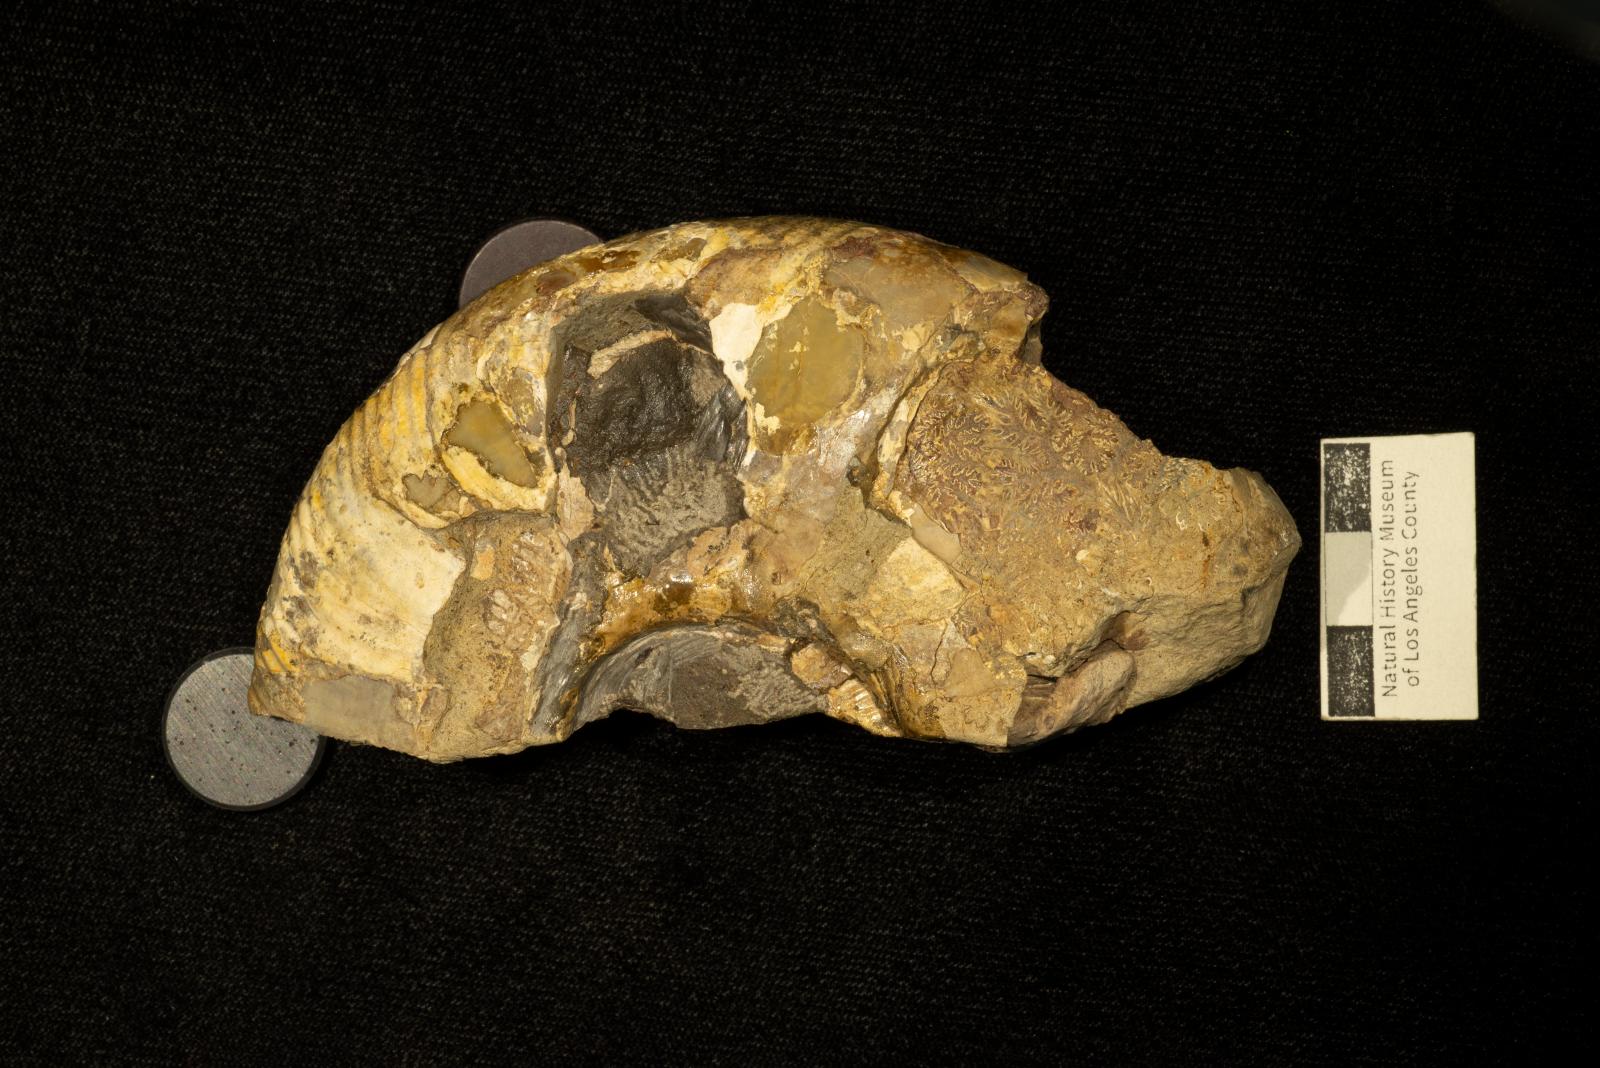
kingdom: Animalia
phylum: Mollusca
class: Cephalopoda
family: Desmoceratidae
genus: Mesopuzosia
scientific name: Mesopuzosia Desmoceras yubarense
